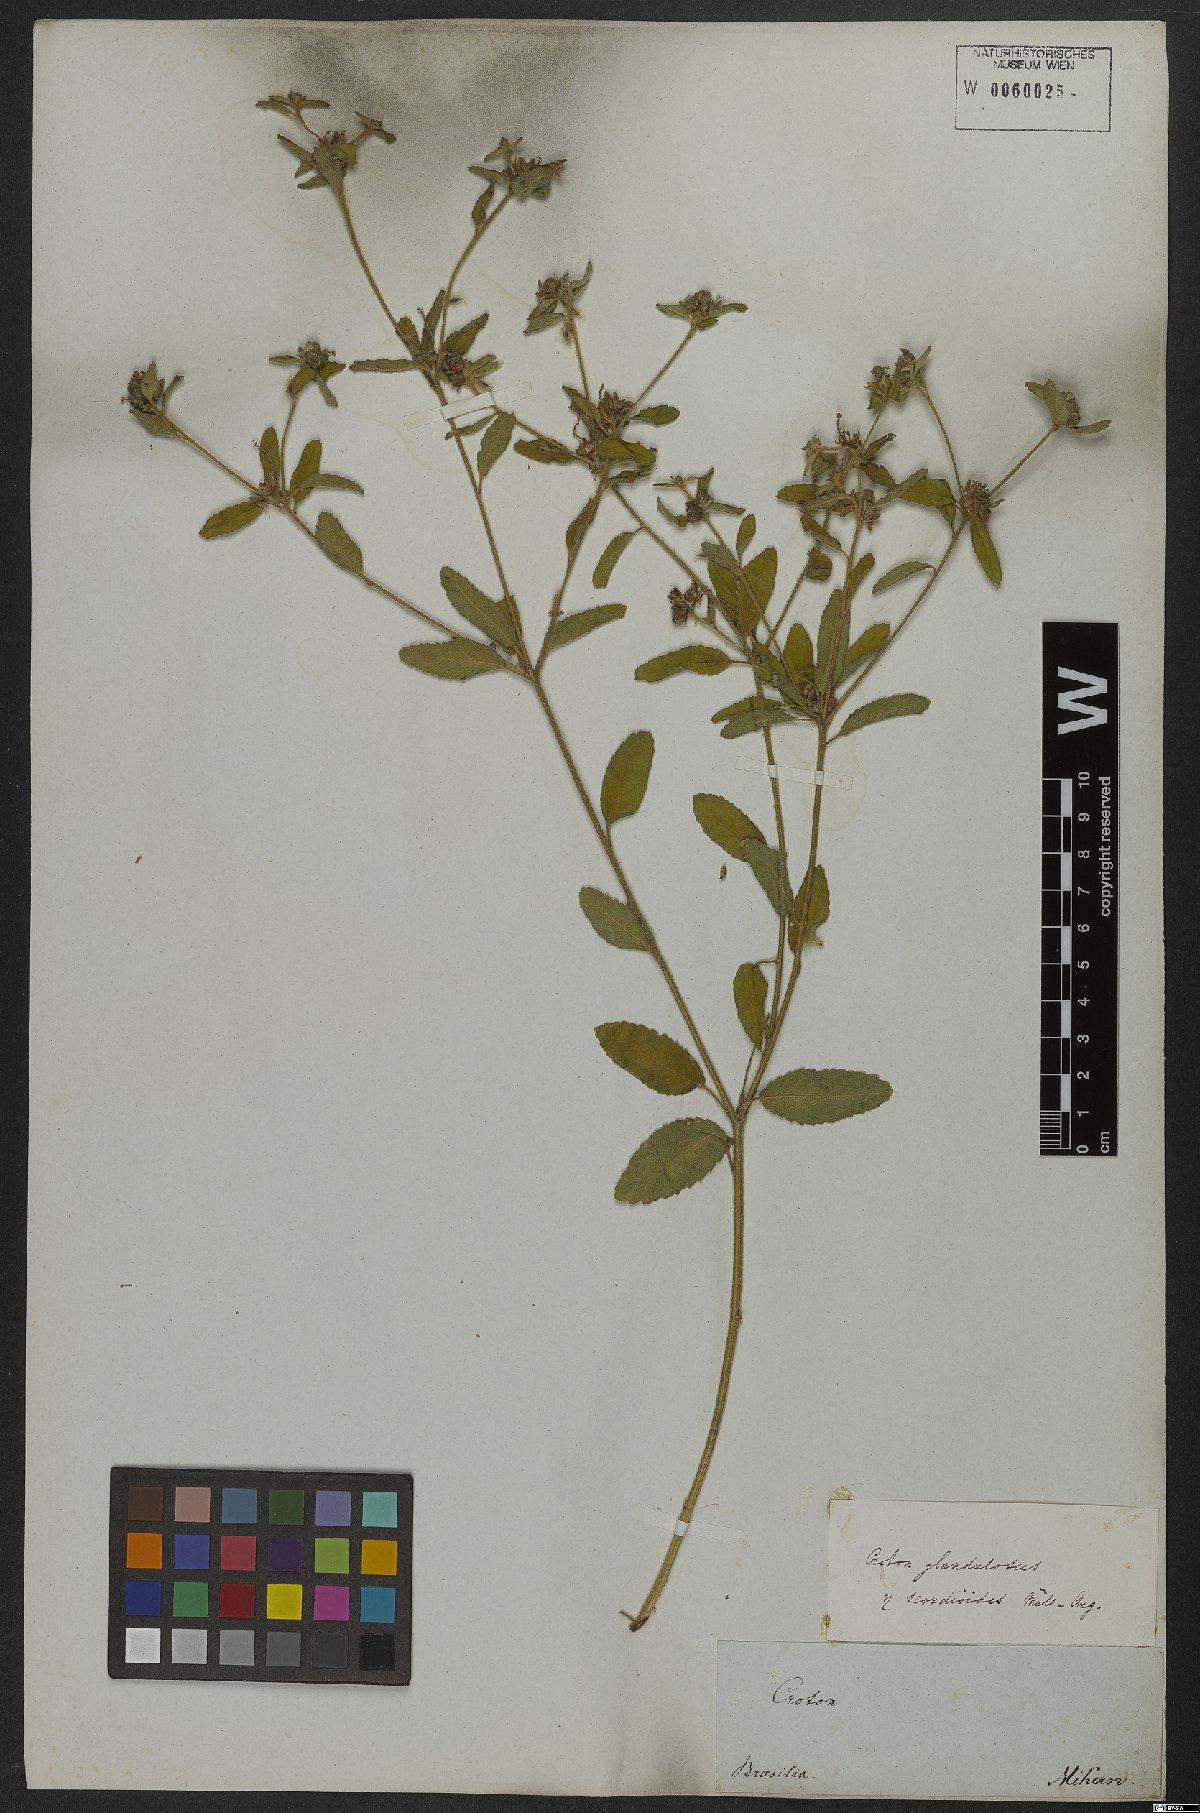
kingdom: Plantae
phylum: Tracheophyta
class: Magnoliopsida
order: Malpighiales
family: Euphorbiaceae
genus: Croton
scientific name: Croton glandulosus
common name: Tropic croton
